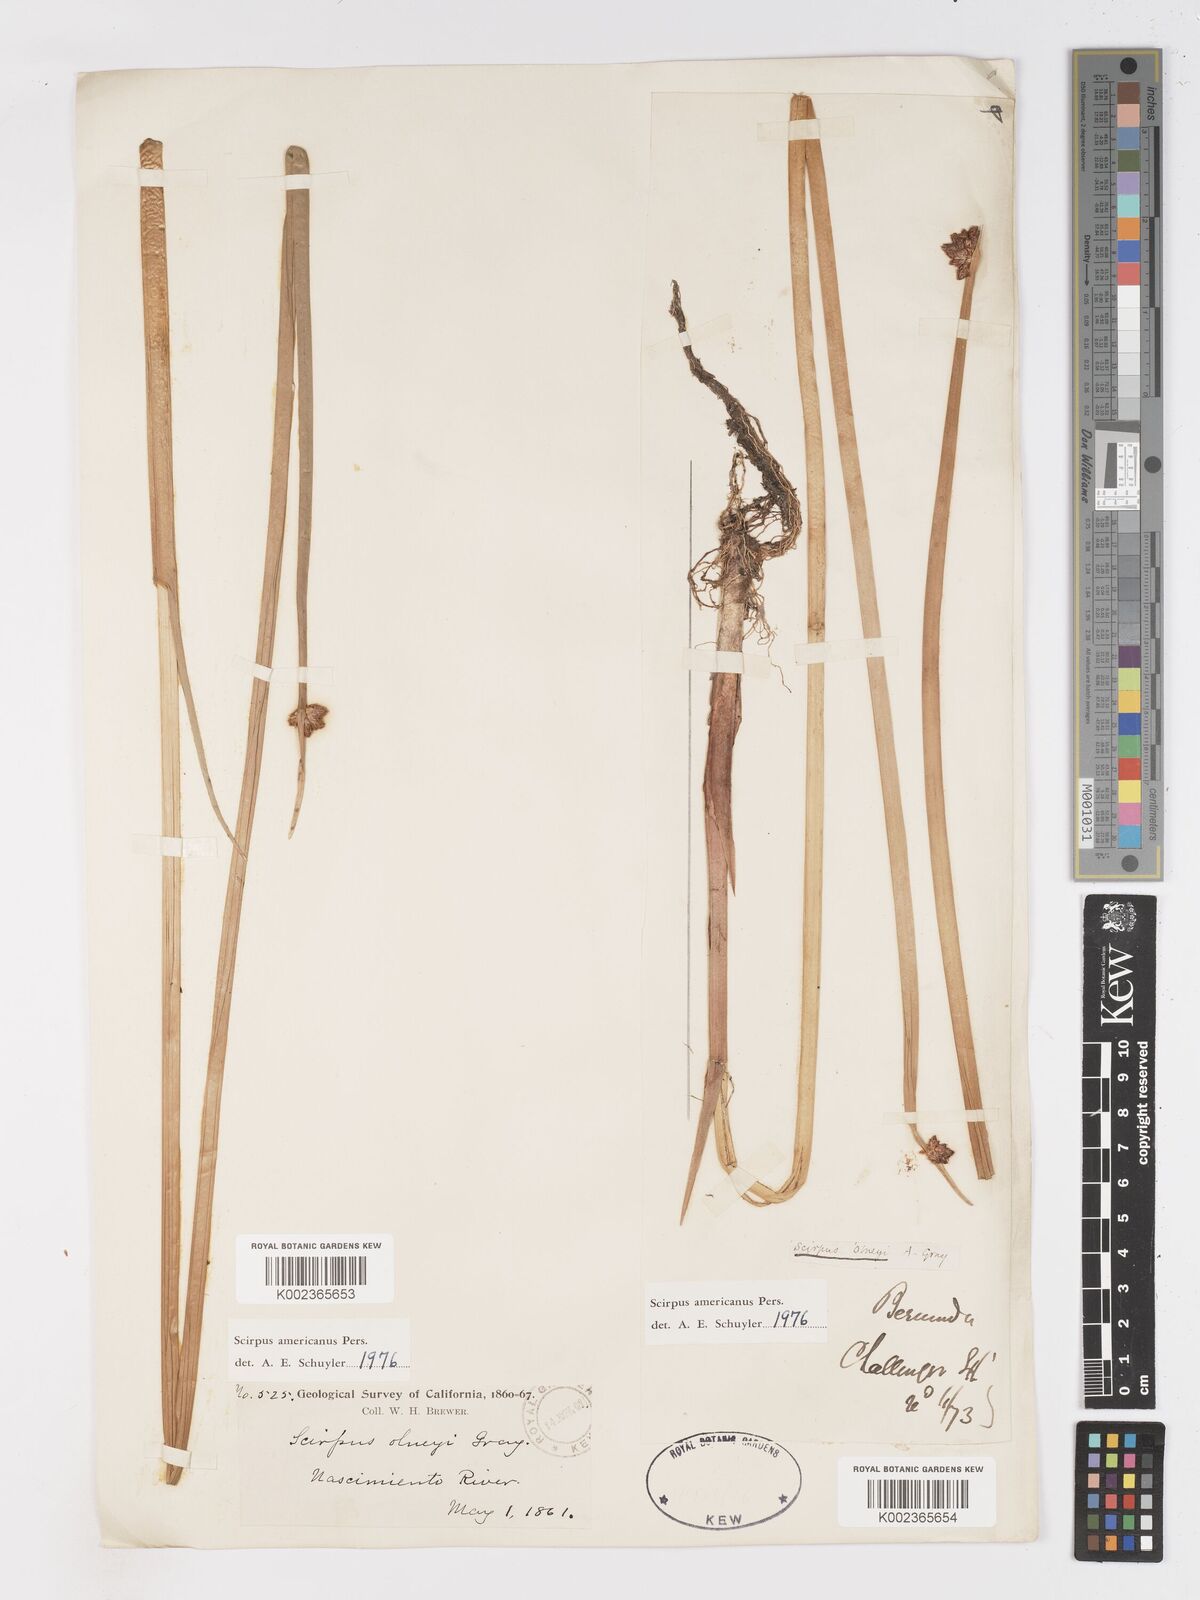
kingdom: Plantae
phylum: Tracheophyta
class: Liliopsida
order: Poales
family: Cyperaceae
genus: Schoenoplectus
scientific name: Schoenoplectus americanus
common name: American three-square bulrush
